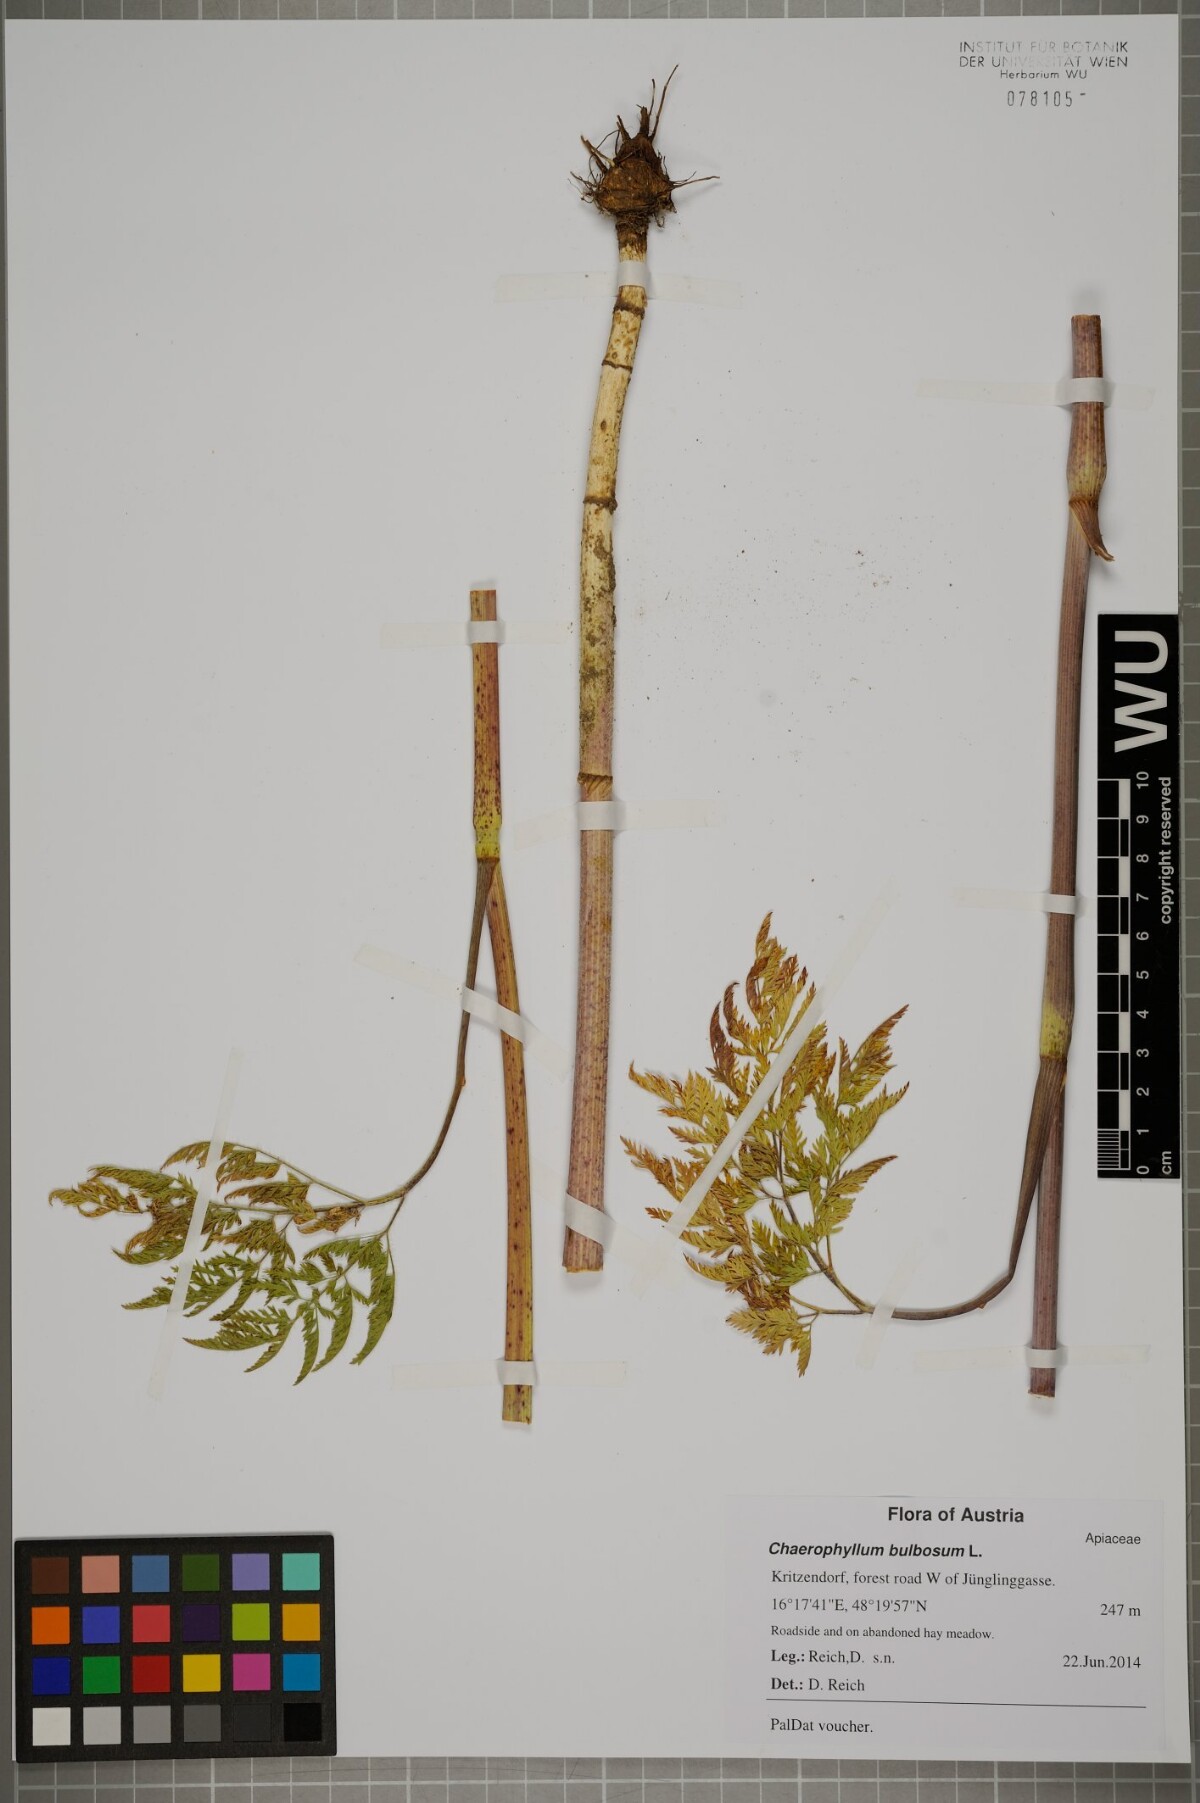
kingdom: Plantae
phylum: Tracheophyta
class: Magnoliopsida
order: Apiales
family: Apiaceae
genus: Chaerophyllum
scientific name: Chaerophyllum bulbosum
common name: Bulbous chervil
